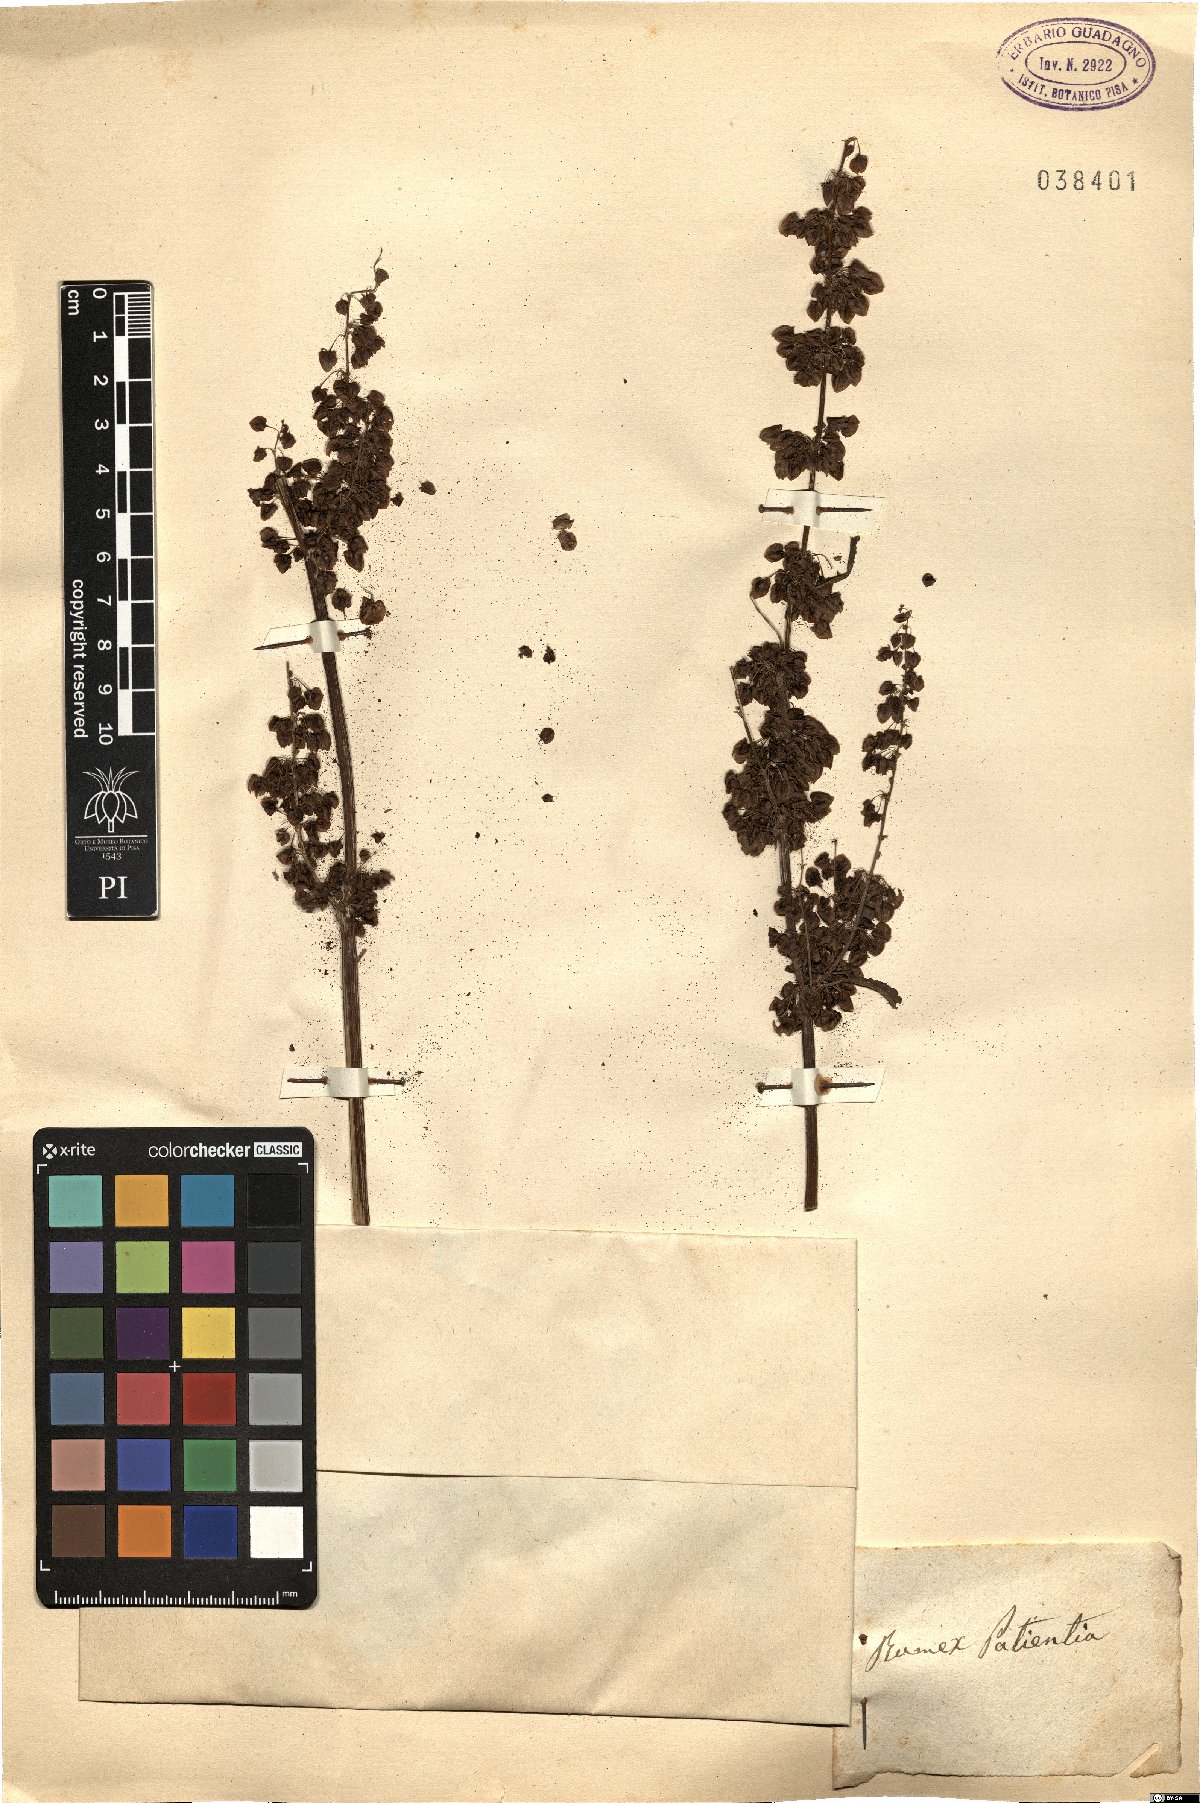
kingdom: Plantae
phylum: Tracheophyta
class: Magnoliopsida
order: Caryophyllales
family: Polygonaceae
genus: Rumex
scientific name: Rumex patientia
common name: Patience dock
